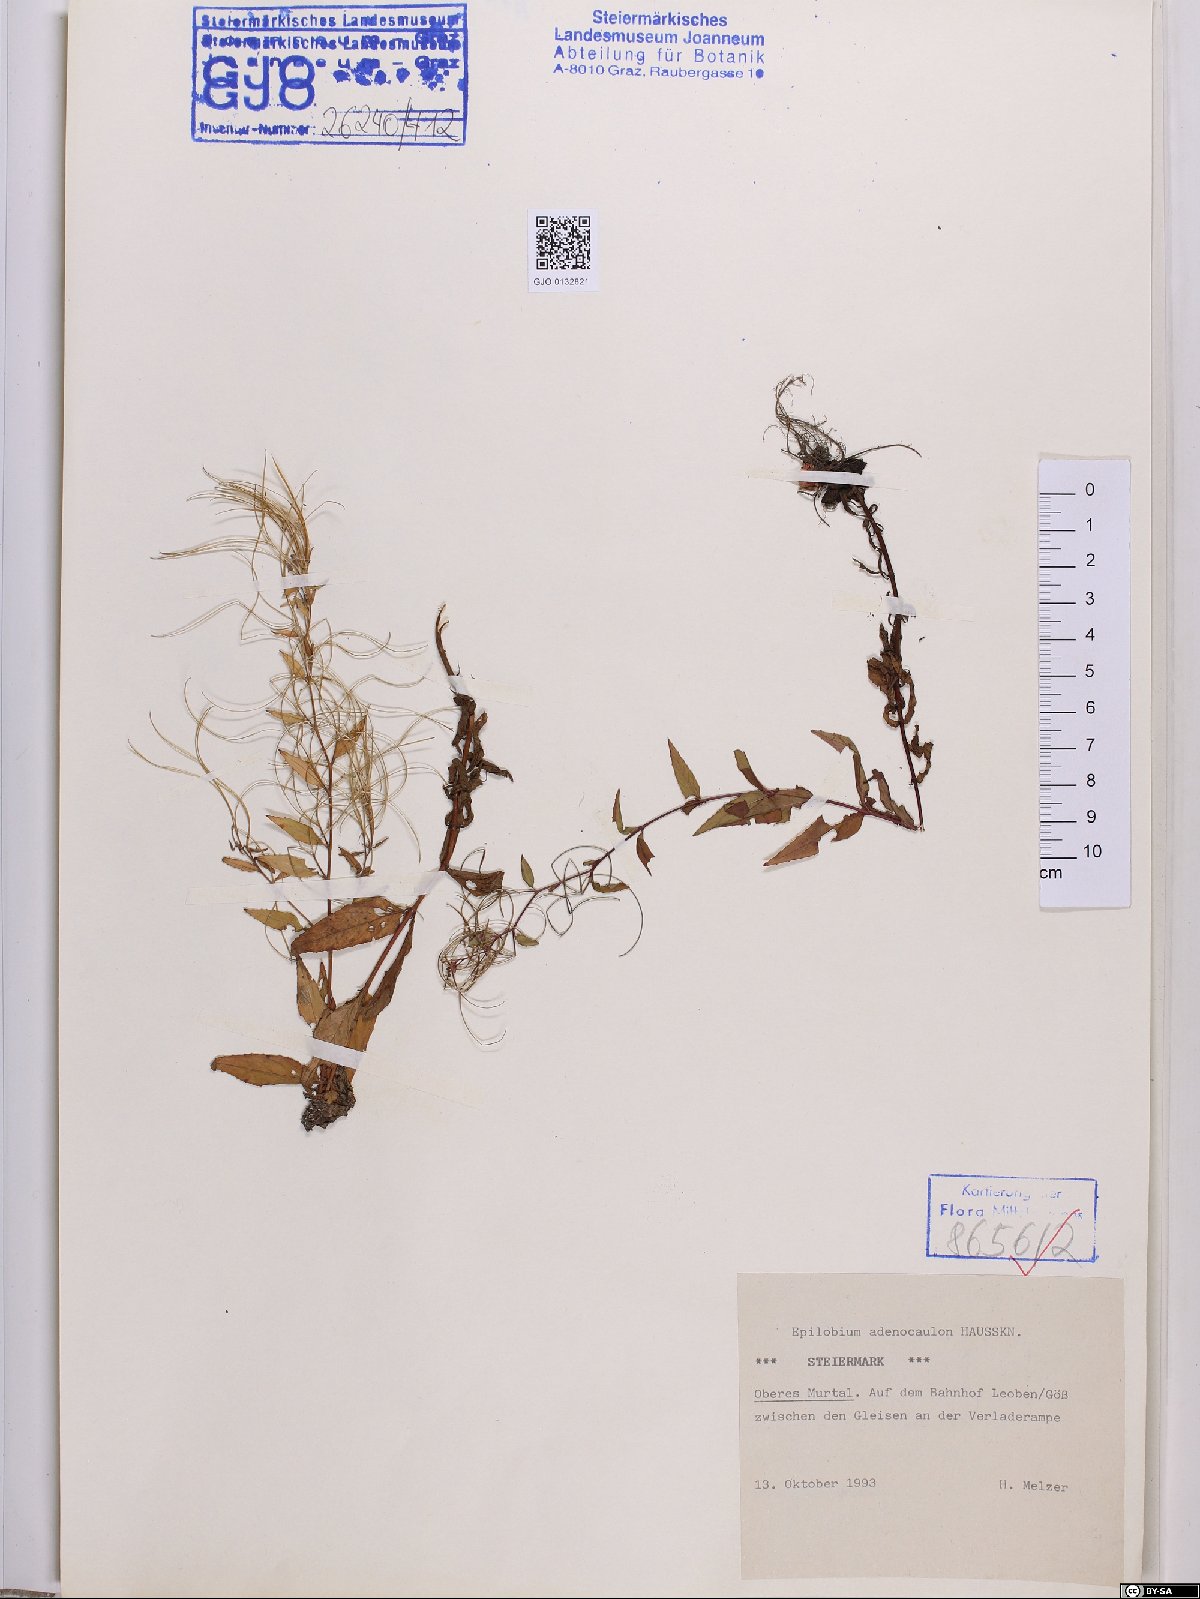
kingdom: Plantae
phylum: Tracheophyta
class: Magnoliopsida
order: Myrtales
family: Onagraceae
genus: Epilobium
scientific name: Epilobium ciliatum
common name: American willowherb
